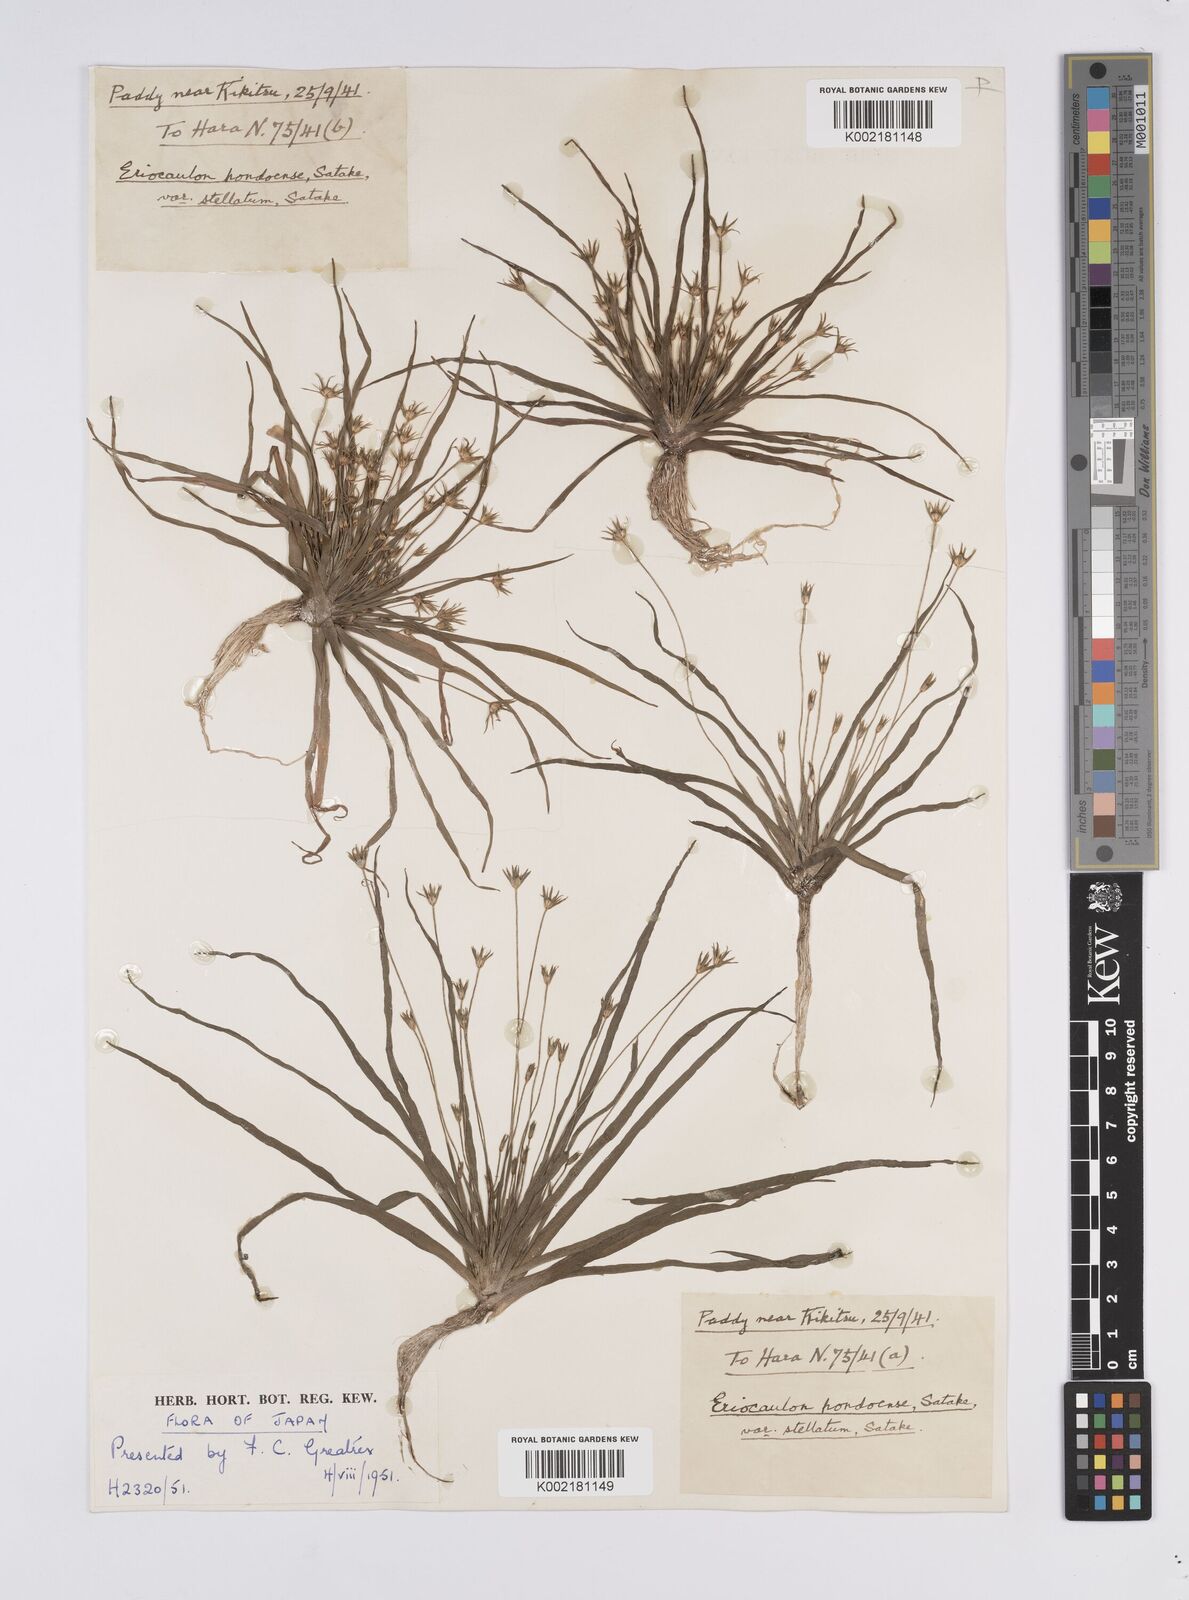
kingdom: Plantae
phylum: Tracheophyta
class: Liliopsida
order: Poales
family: Eriocaulaceae
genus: Eriocaulon
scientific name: Eriocaulon taquetii
